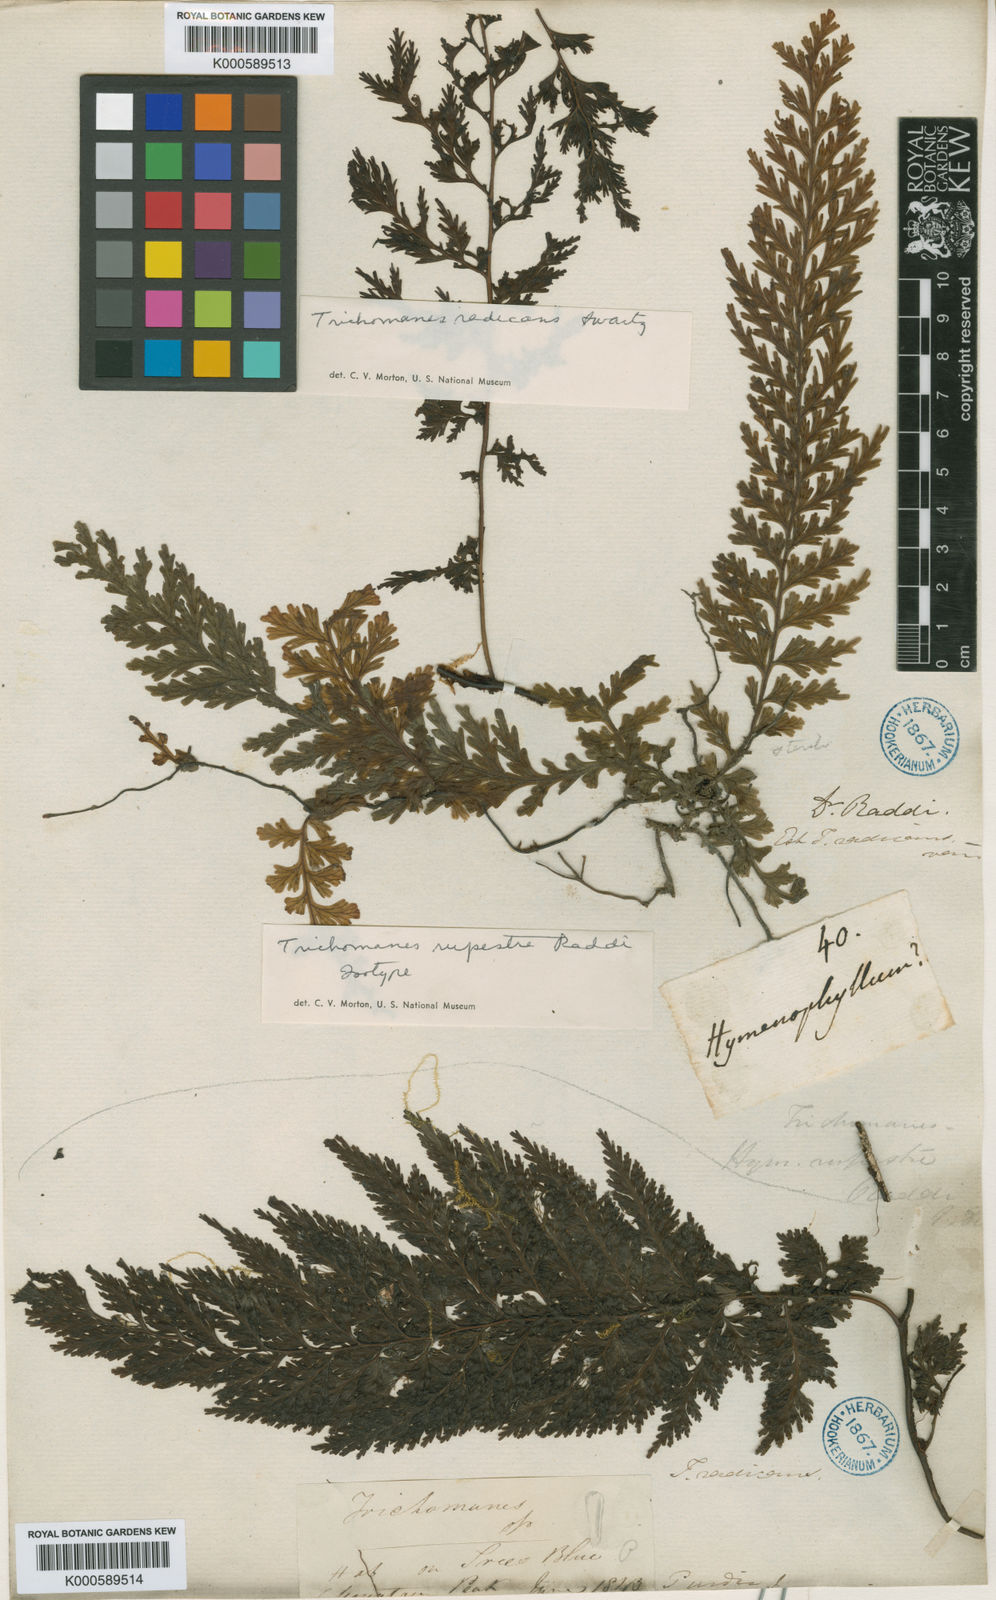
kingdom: Plantae
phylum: Tracheophyta
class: Polypodiopsida
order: Hymenophyllales
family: Hymenophyllaceae
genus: Vandenboschia
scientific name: Vandenboschia rupestris
